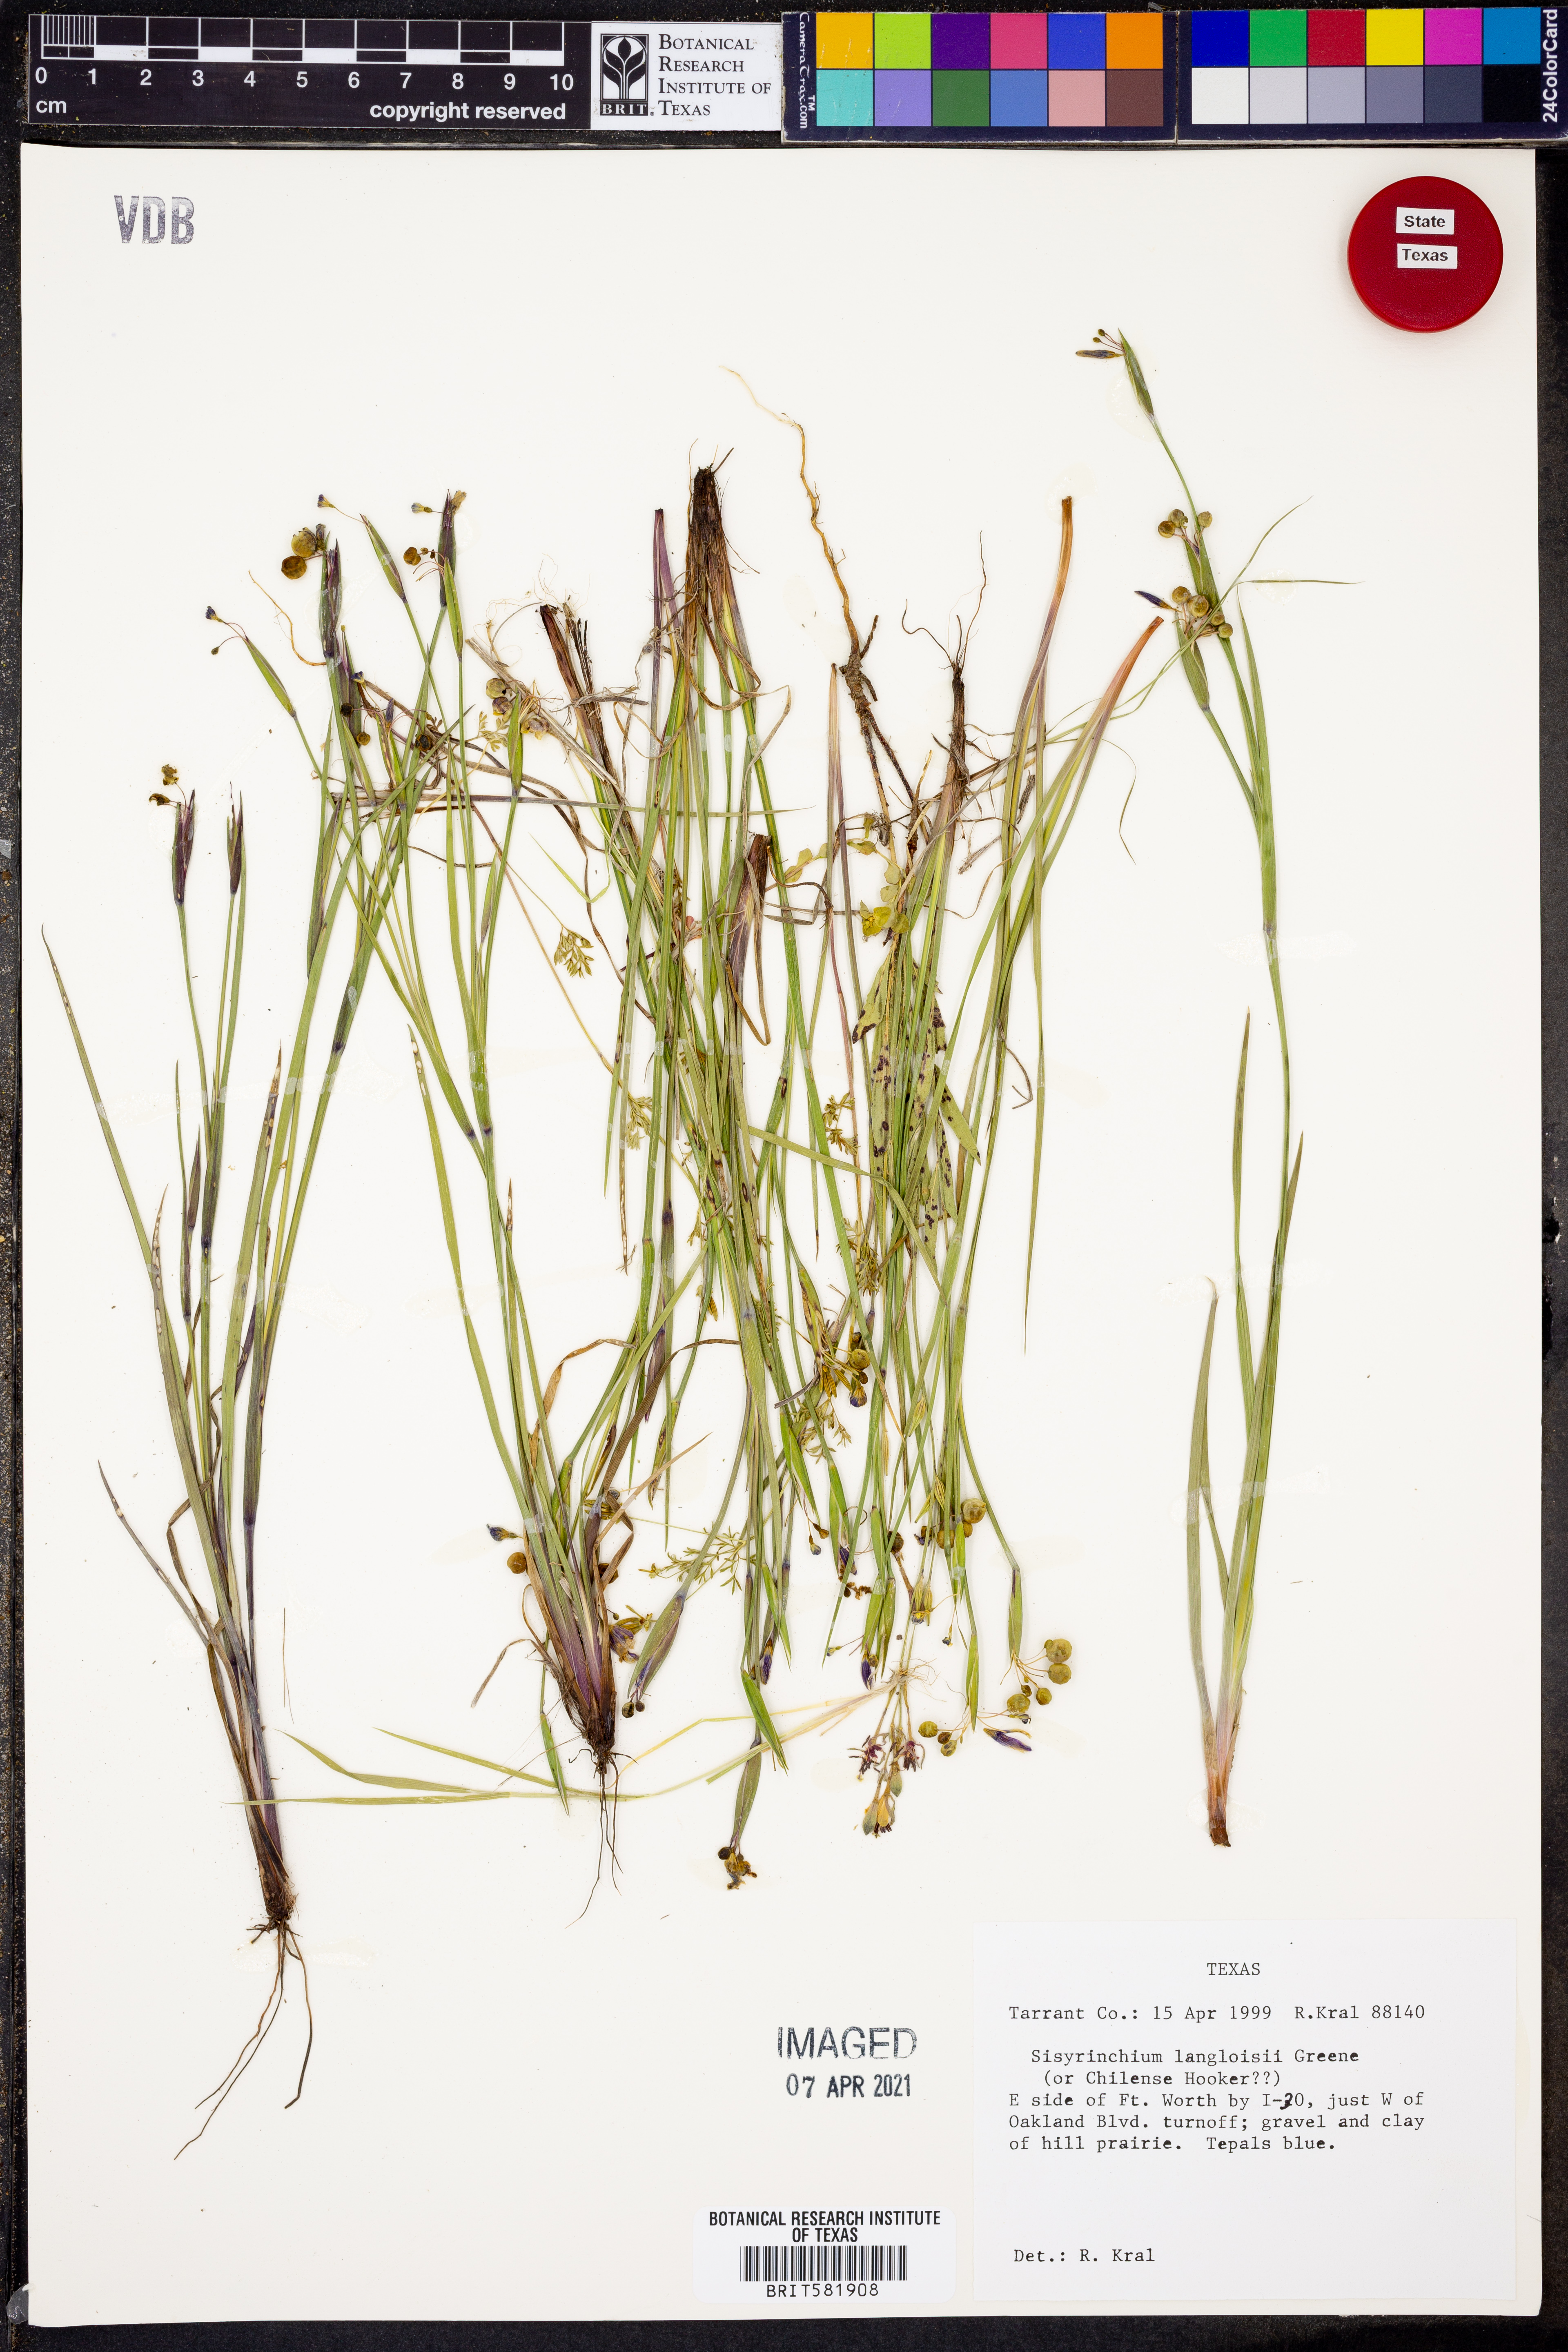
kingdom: Plantae
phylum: Tracheophyta
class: Liliopsida
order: Asparagales
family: Iridaceae
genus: Sisyrinchium
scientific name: Sisyrinchium langloisii
